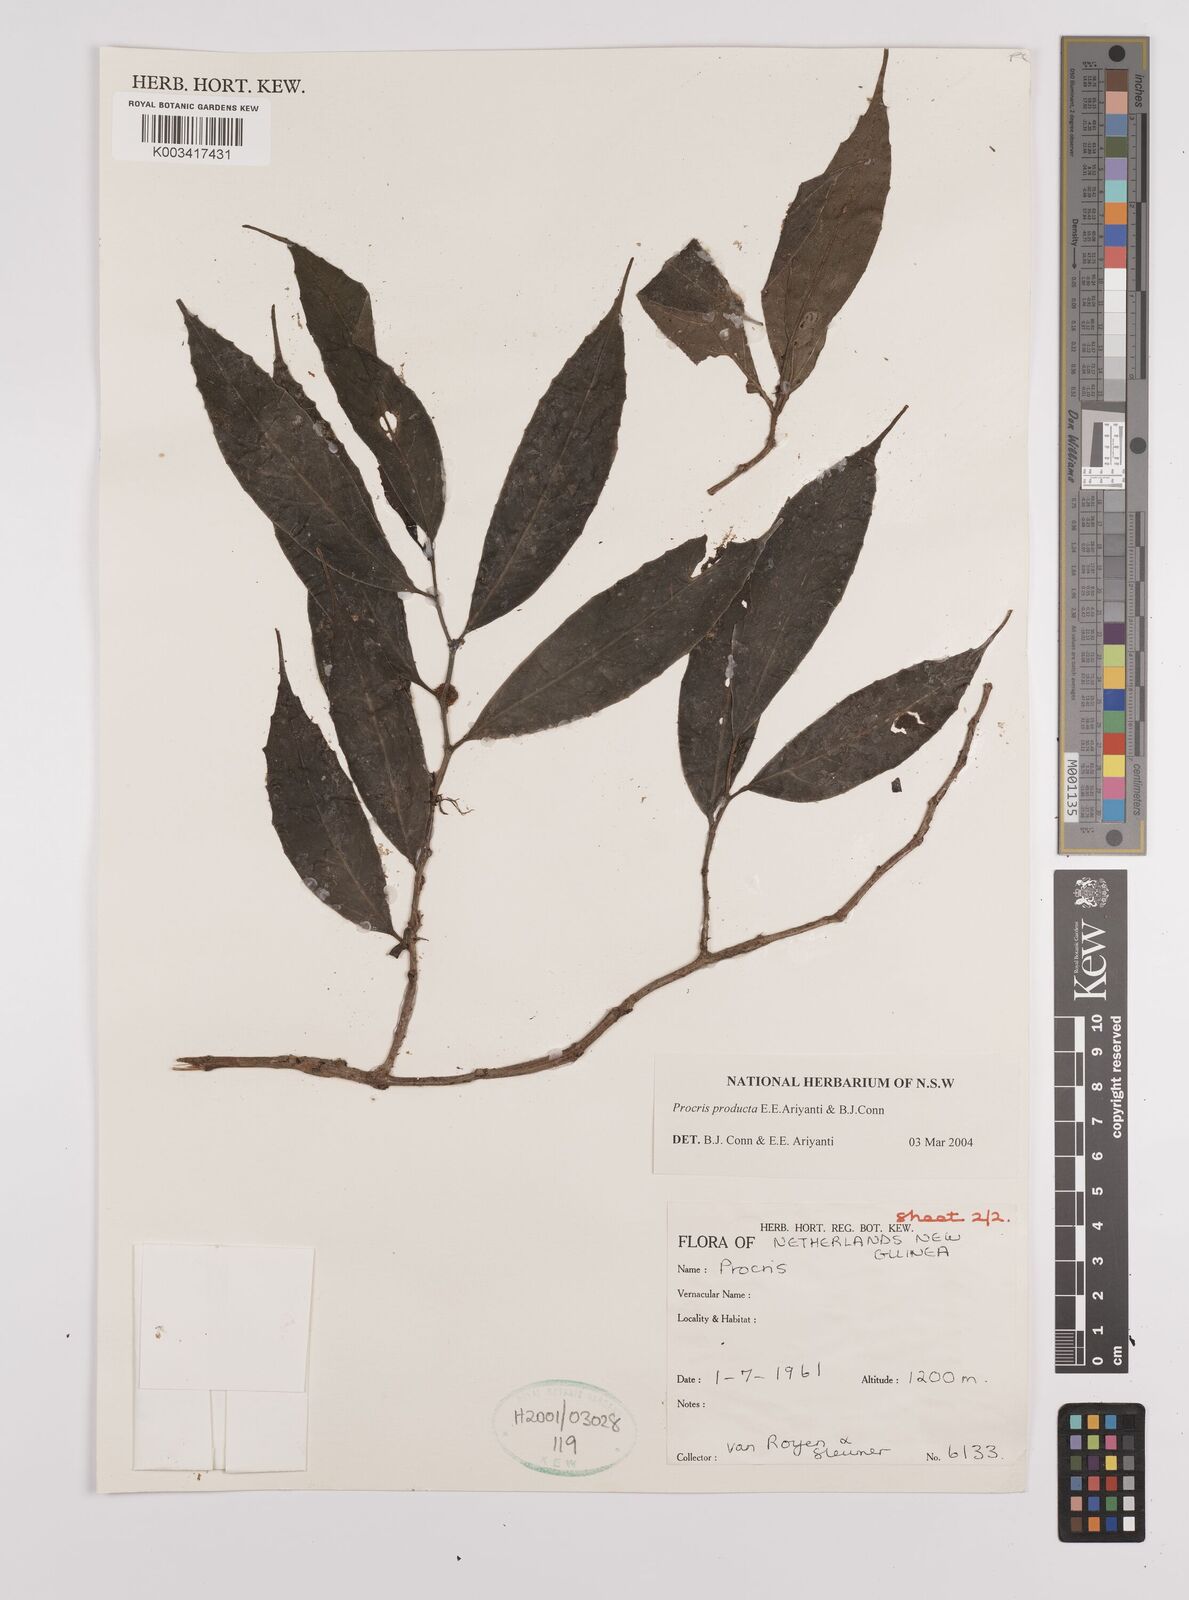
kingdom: Plantae
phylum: Tracheophyta
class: Magnoliopsida
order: Rosales
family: Urticaceae
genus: Procris
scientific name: Procris
